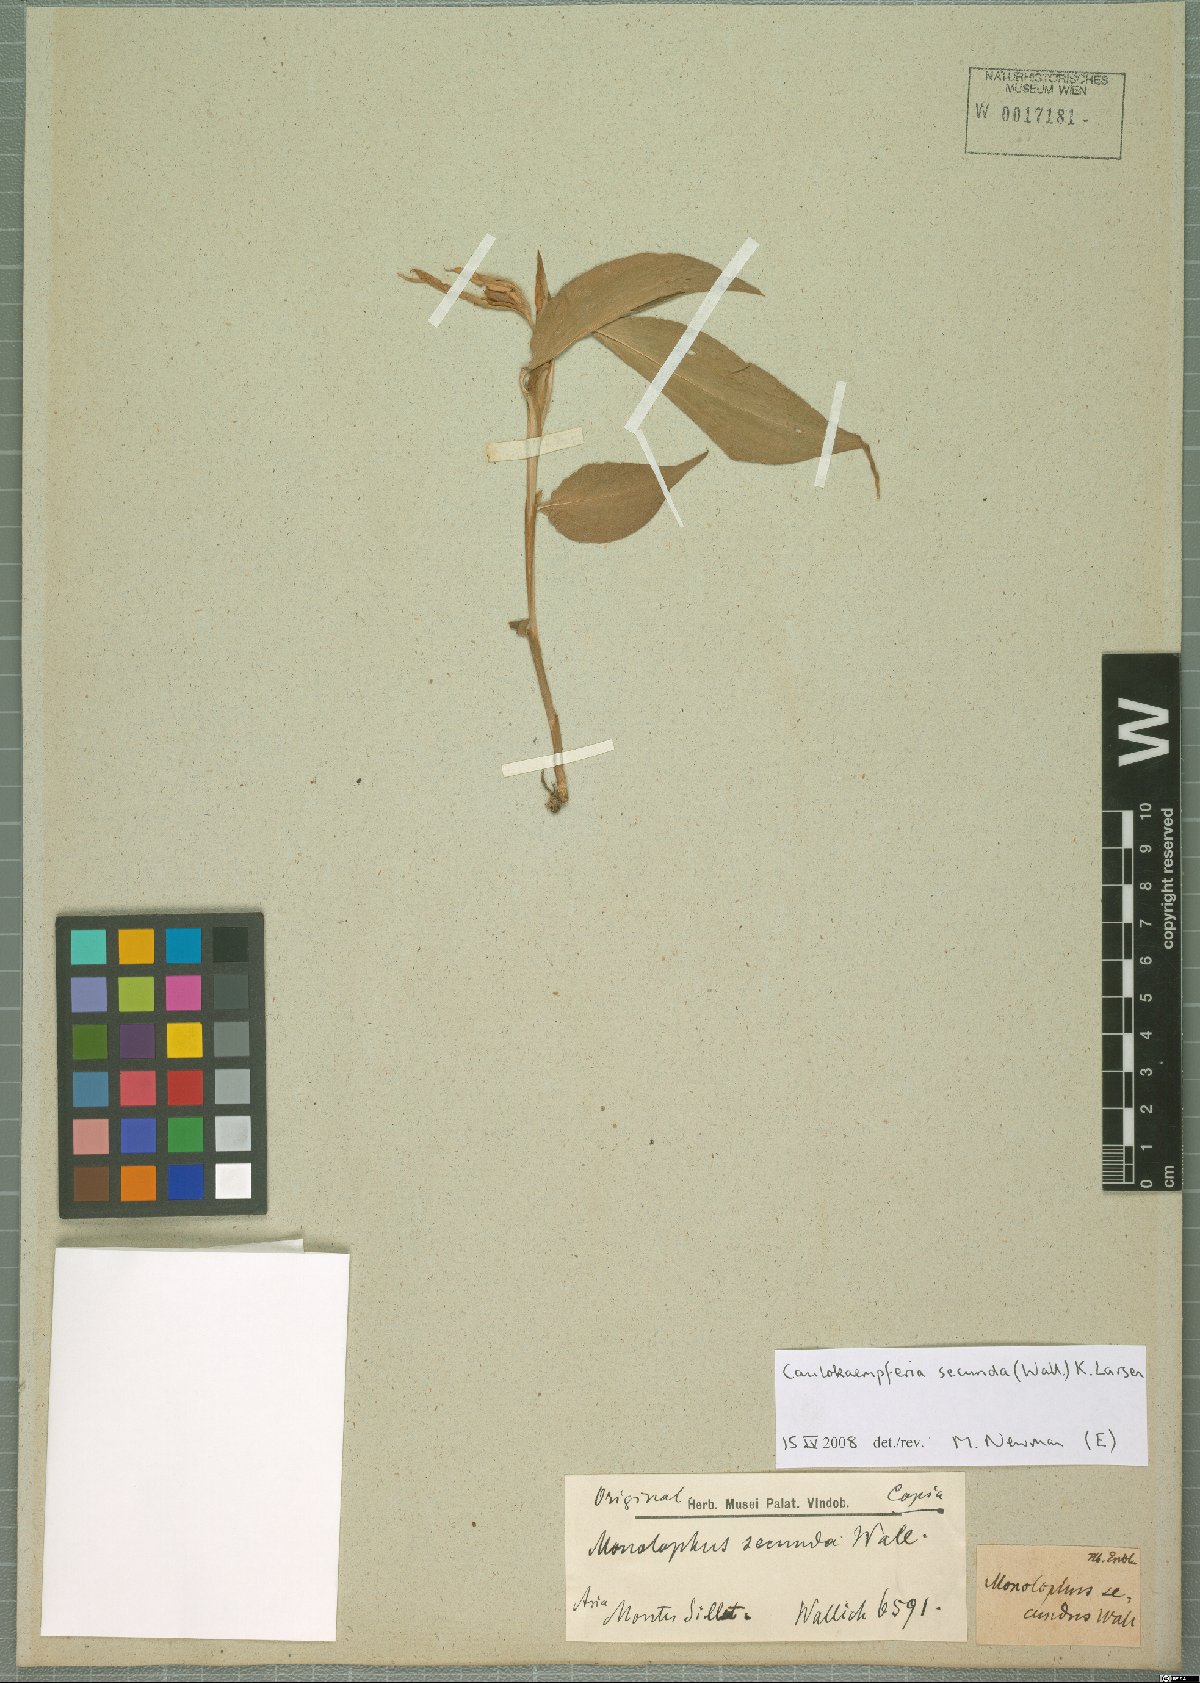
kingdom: Plantae
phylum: Tracheophyta
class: Liliopsida
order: Zingiberales
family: Zingiberaceae
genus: Caulokaempferia
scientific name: Caulokaempferia secunda
